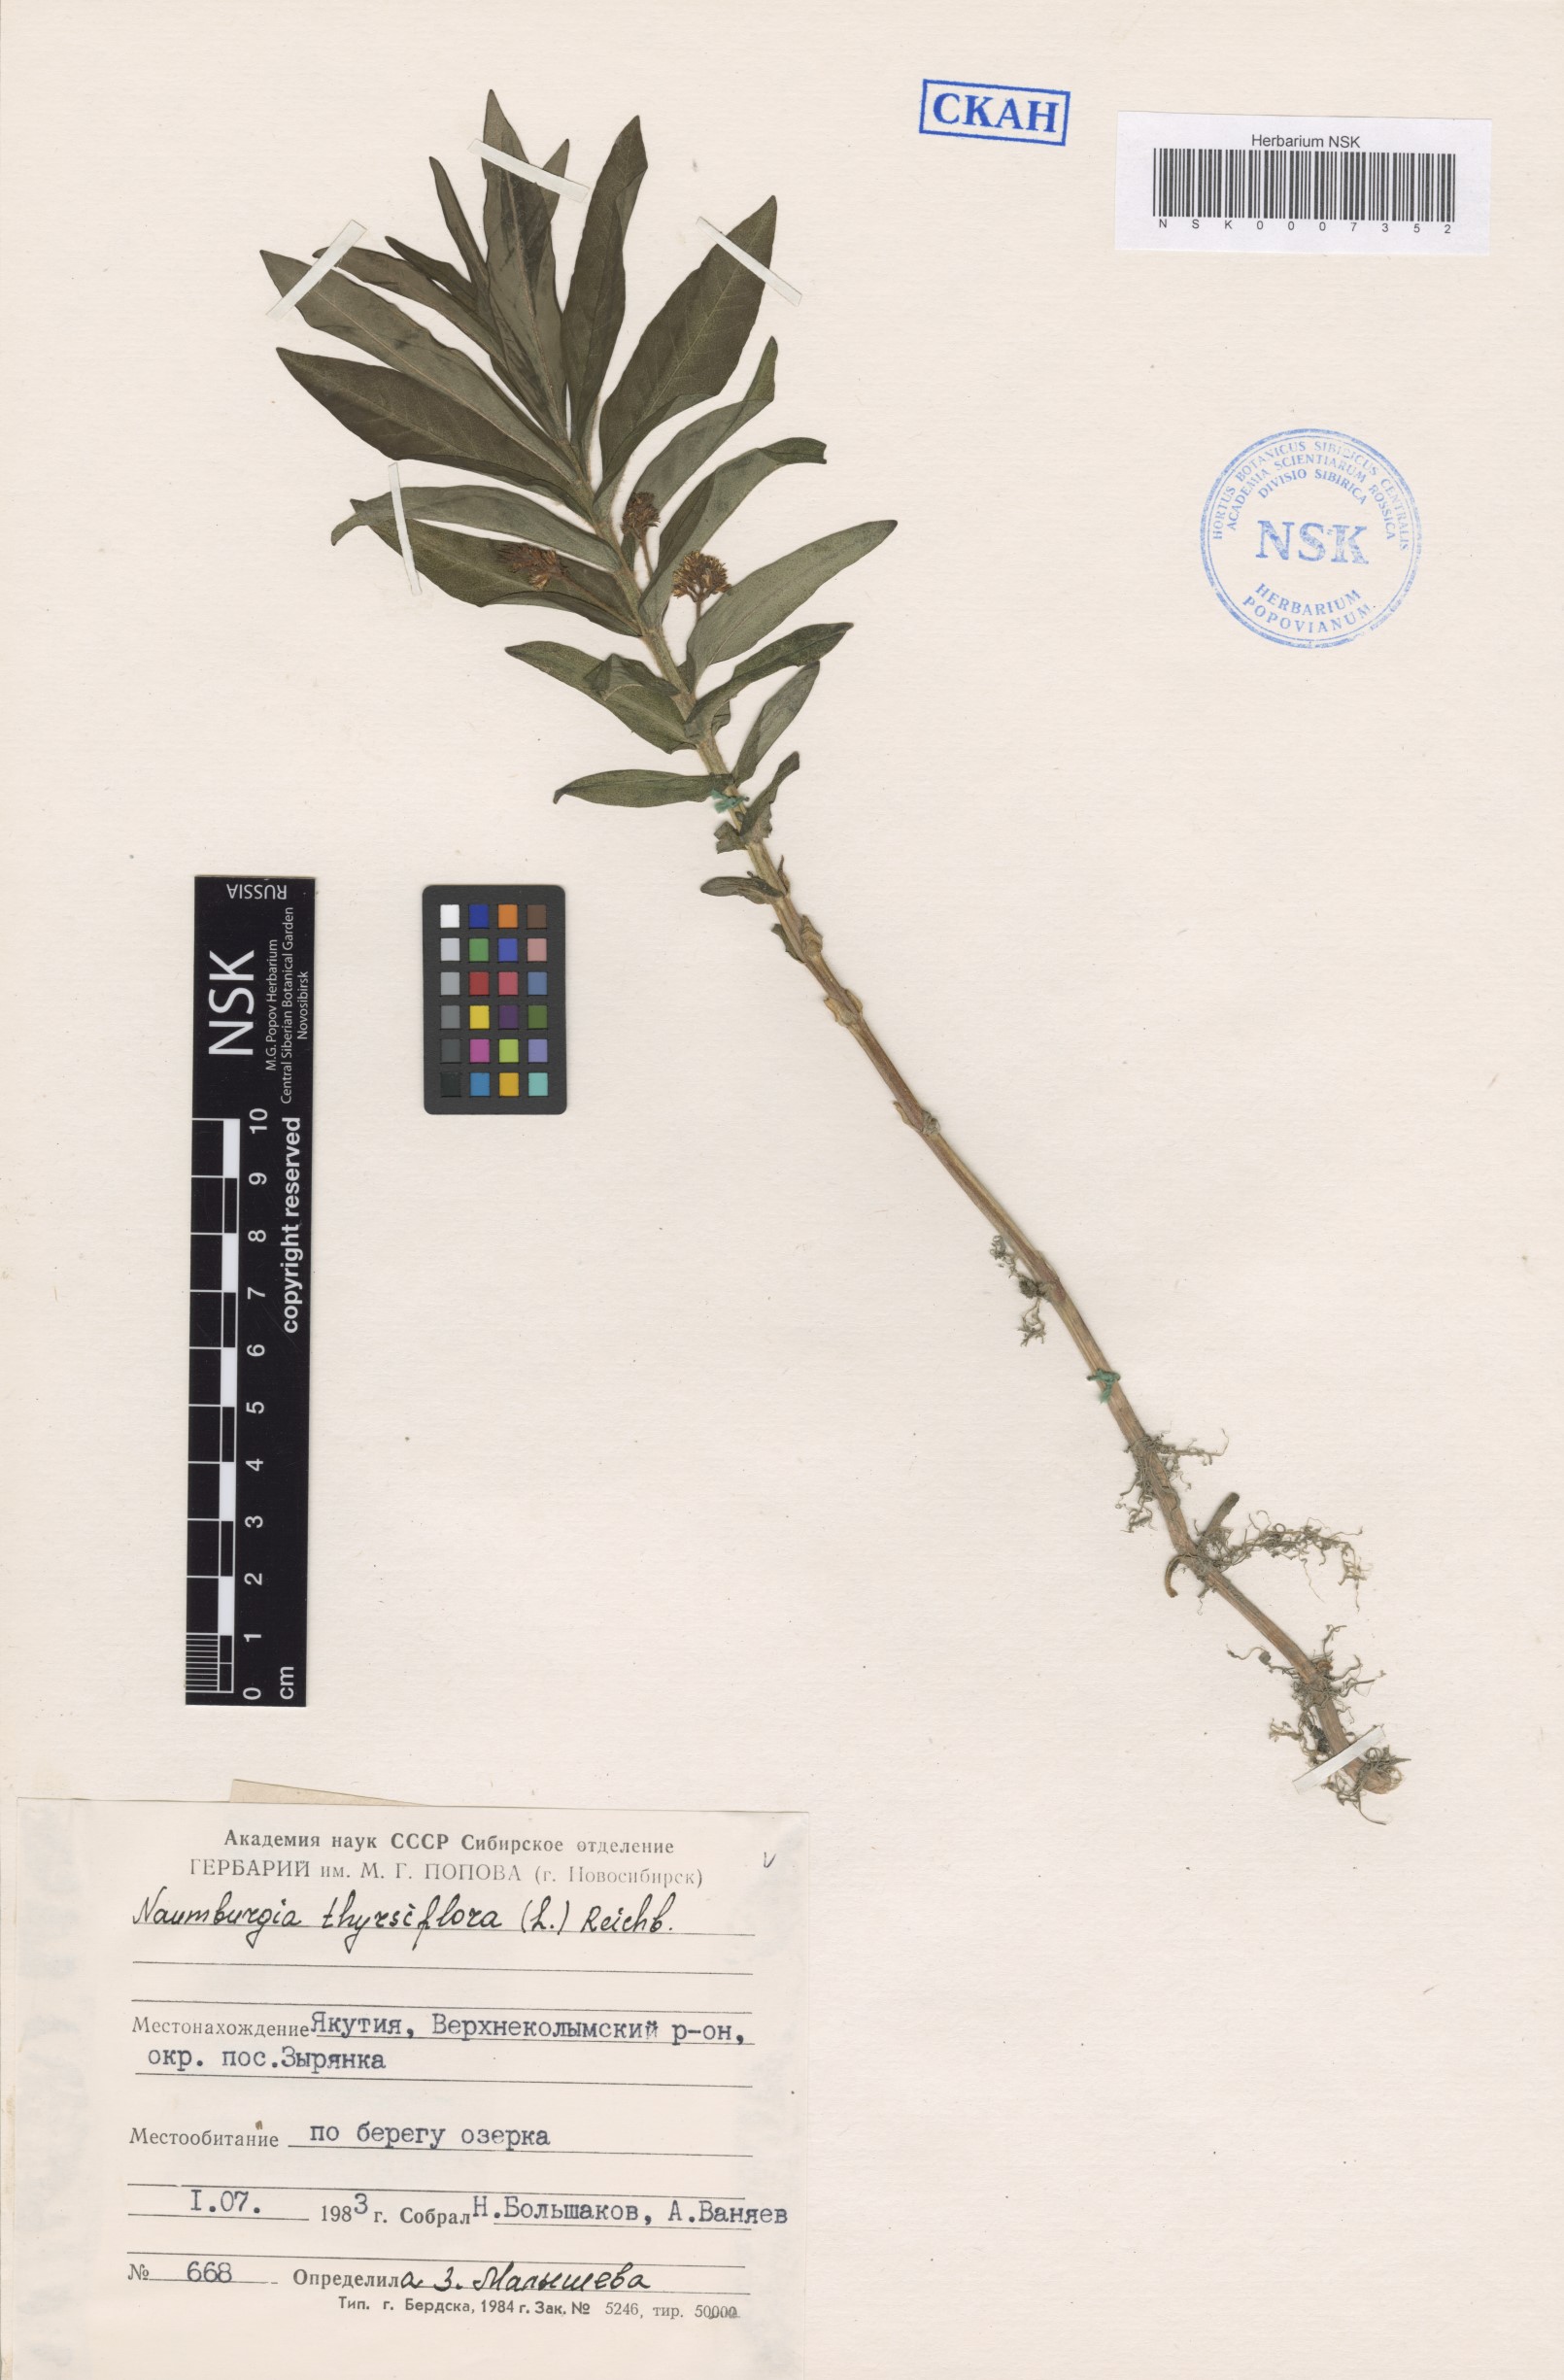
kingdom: Plantae
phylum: Tracheophyta
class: Magnoliopsida
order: Ericales
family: Primulaceae
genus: Lysimachia
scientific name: Lysimachia thyrsiflora
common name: Tufted loosestrife
